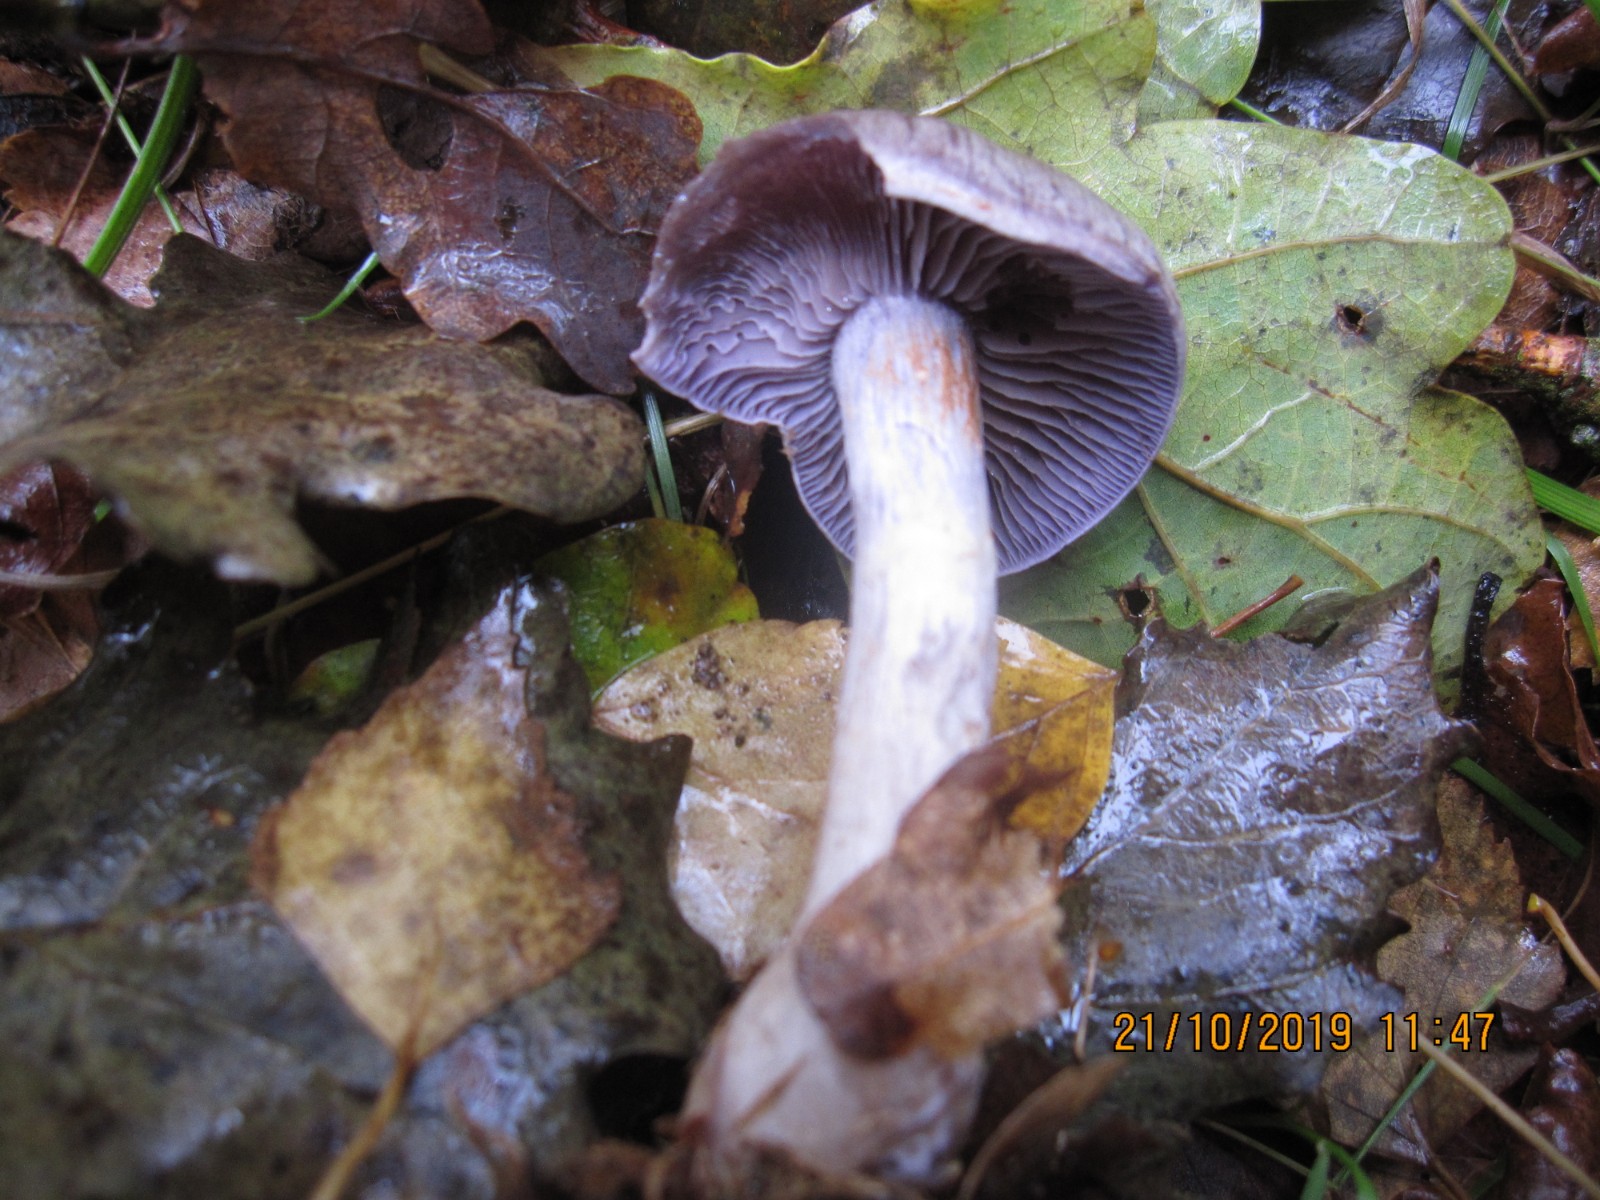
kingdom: Fungi
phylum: Basidiomycota
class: Agaricomycetes
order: Agaricales
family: Cortinariaceae
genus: Cortinarius
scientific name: Cortinarius
